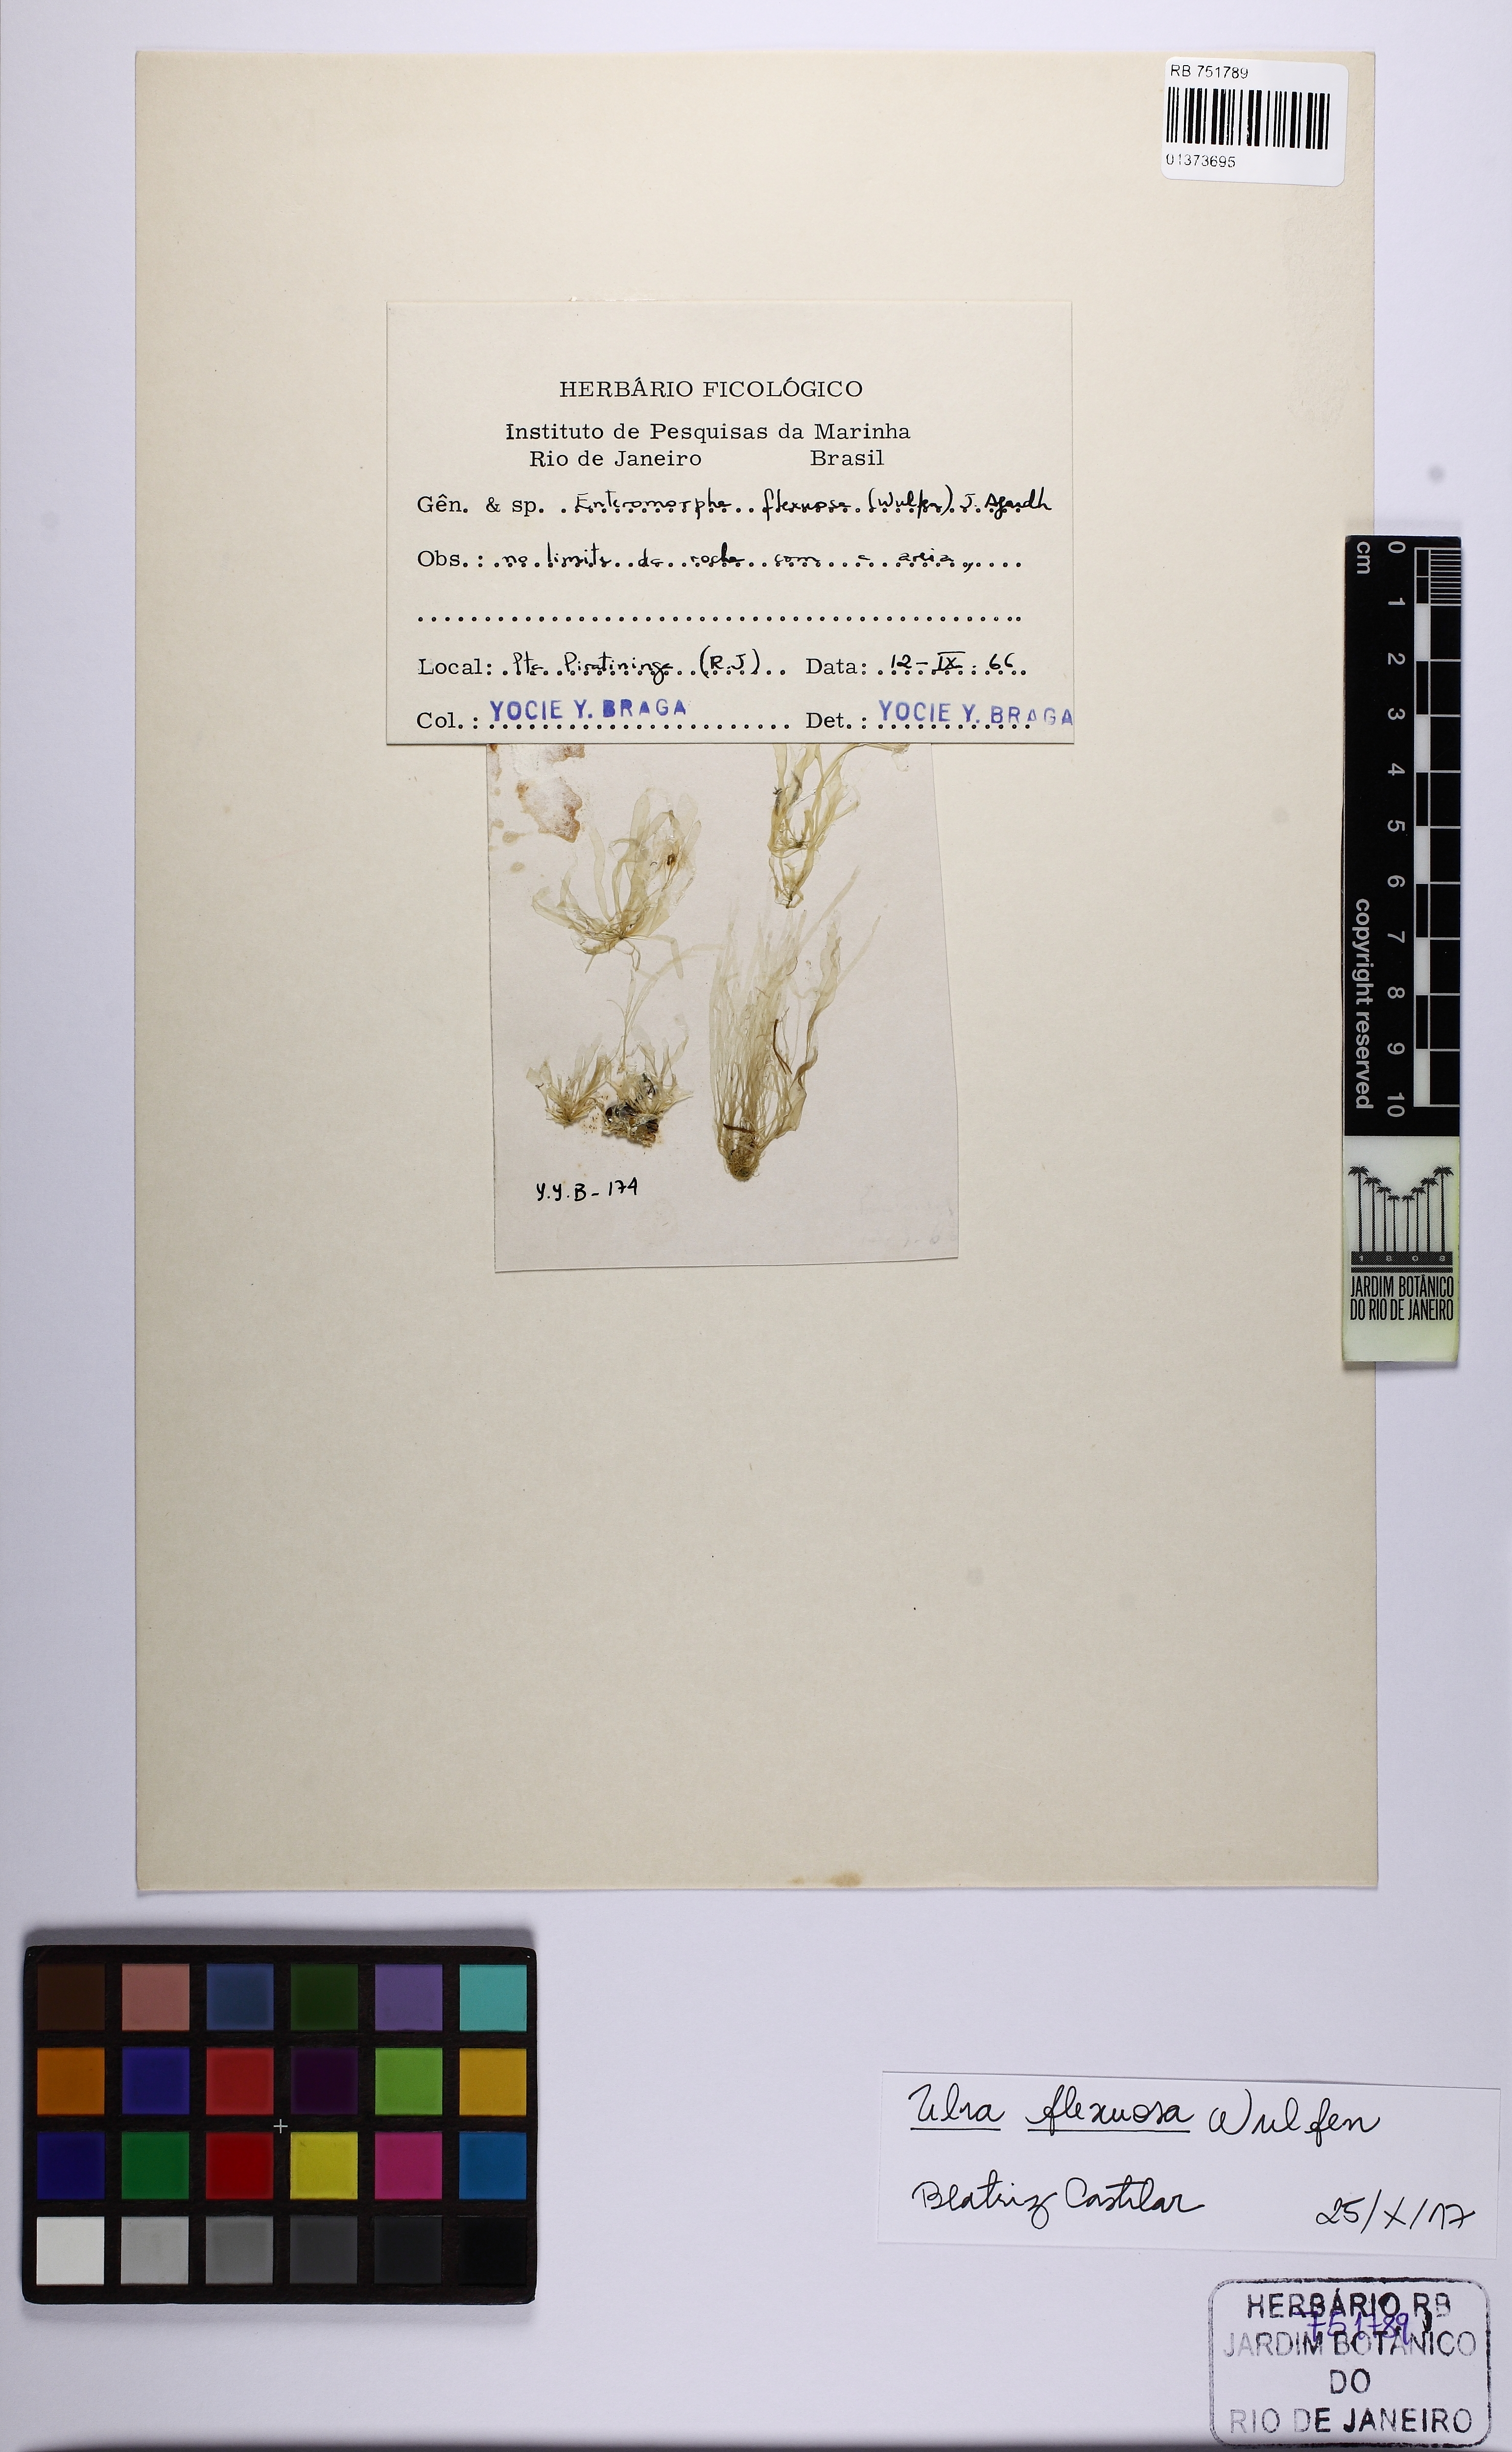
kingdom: Plantae
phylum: Chlorophyta
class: Ulvophyceae
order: Ulvales
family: Ulvaceae
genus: Ulva
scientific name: Ulva flexuosa
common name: Flexuous gutweed
